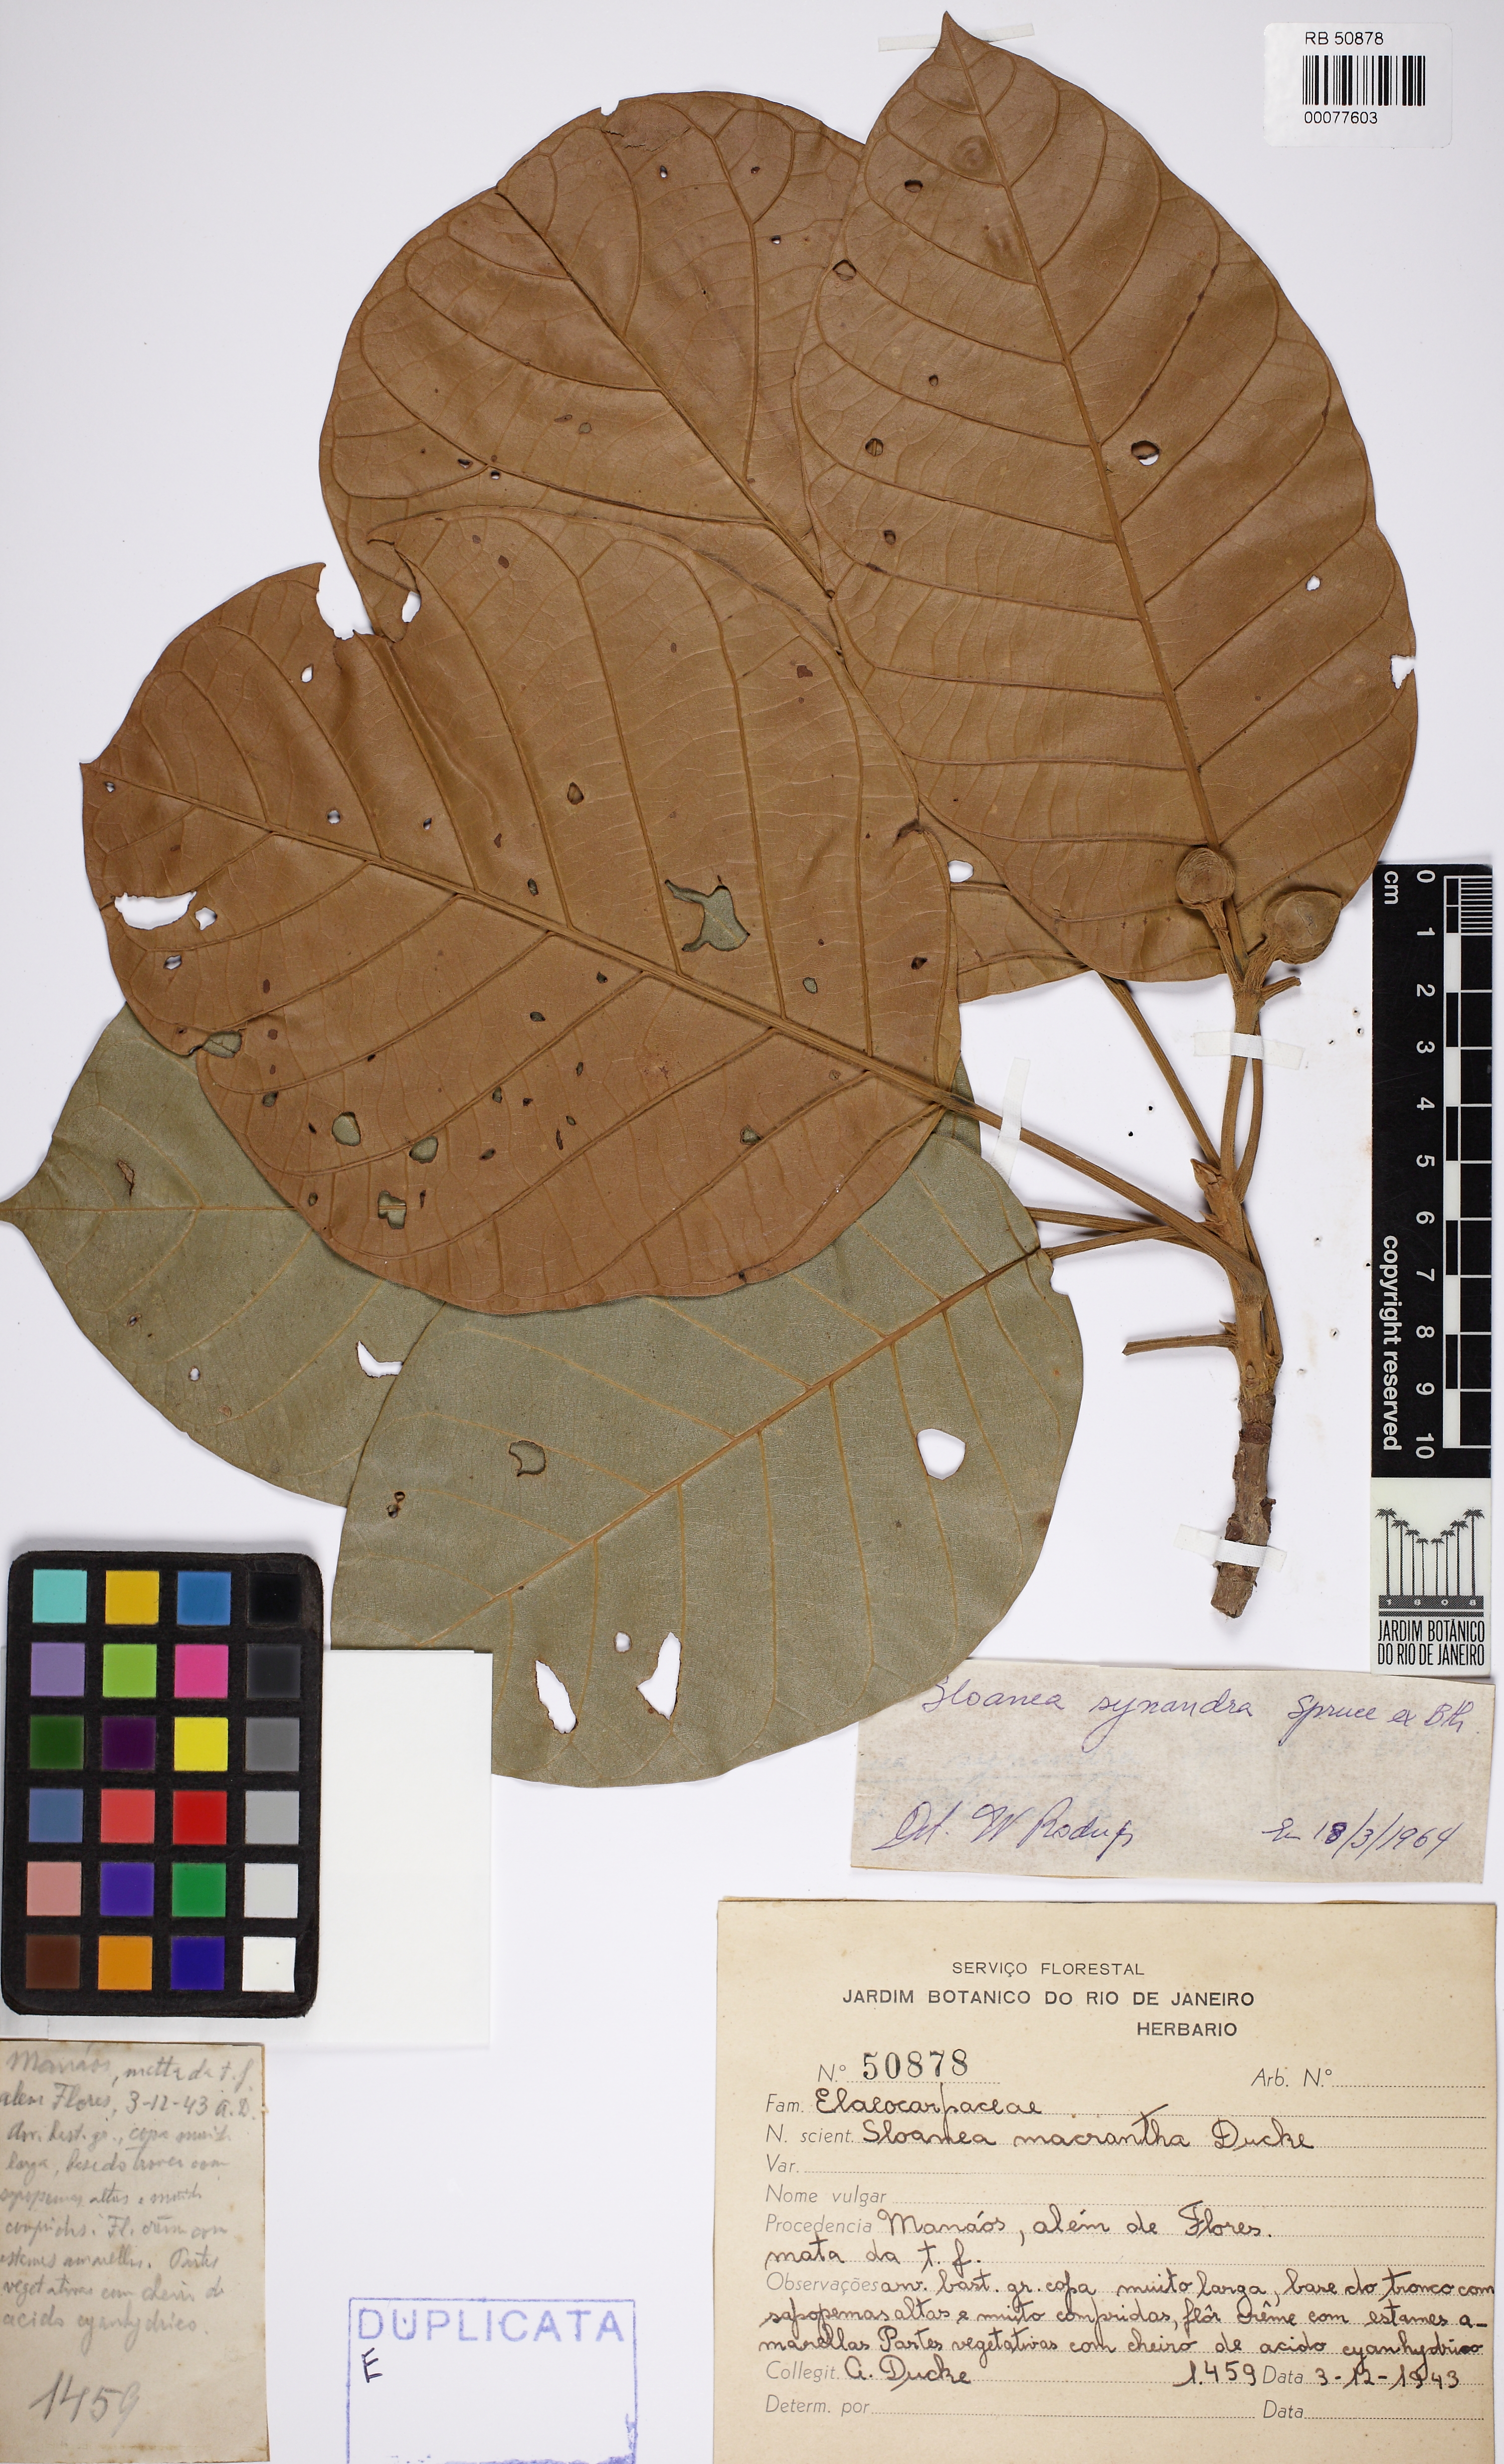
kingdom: Plantae
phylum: Tracheophyta
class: Magnoliopsida
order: Oxalidales
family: Elaeocarpaceae
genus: Sloanea
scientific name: Sloanea synandra
